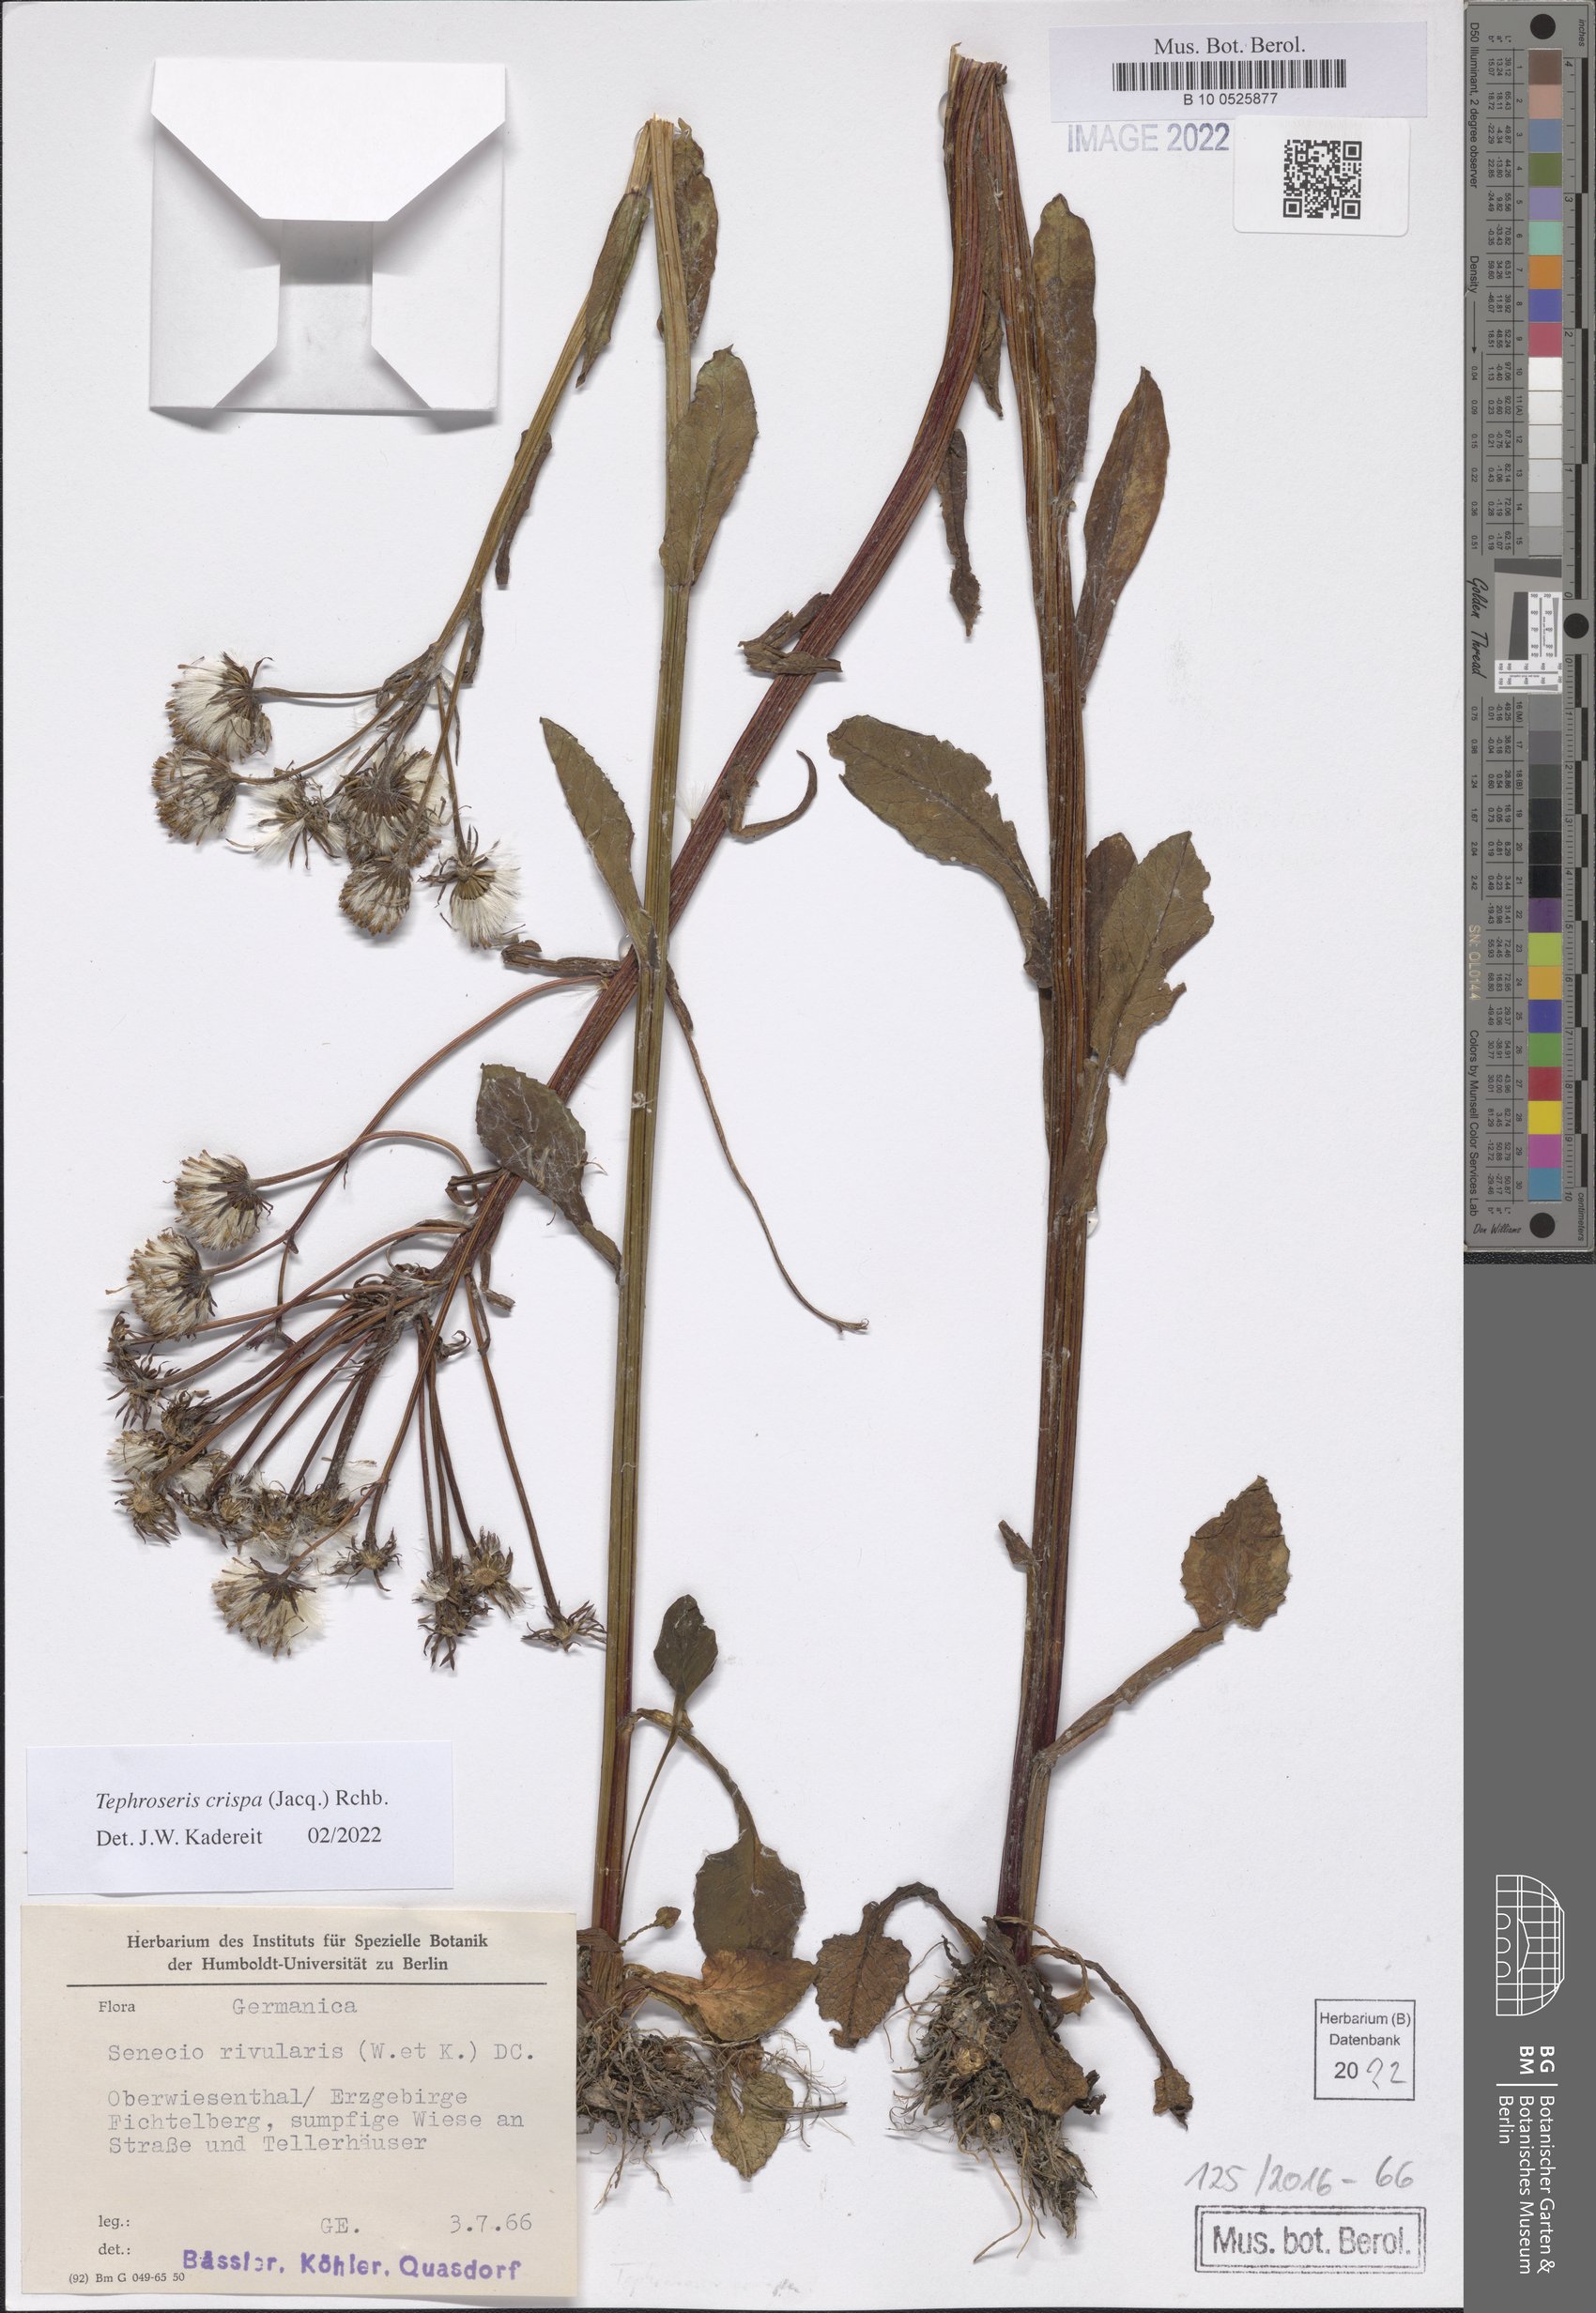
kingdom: Plantae
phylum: Tracheophyta
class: Magnoliopsida
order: Asterales
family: Asteraceae
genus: Tephroseris
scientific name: Tephroseris crispa
